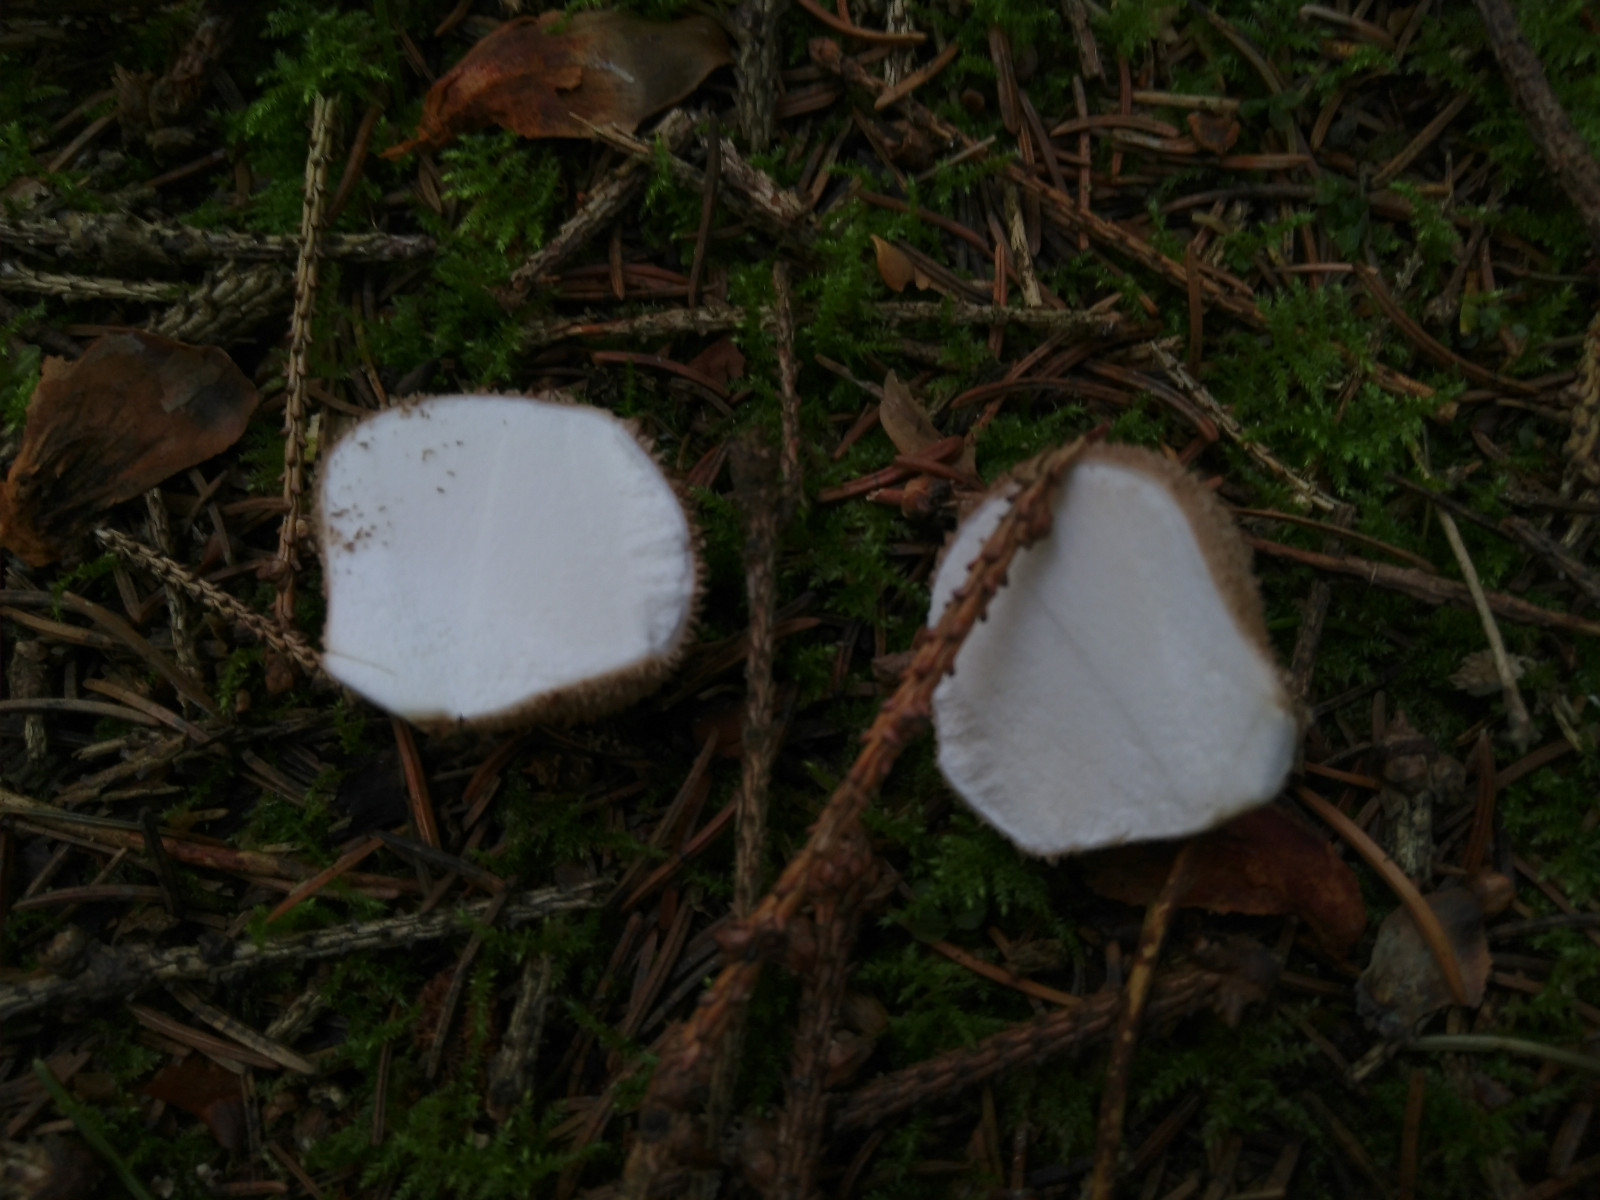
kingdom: Fungi
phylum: Basidiomycota
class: Agaricomycetes
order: Agaricales
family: Lycoperdaceae
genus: Lycoperdon
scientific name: Lycoperdon nigrescens
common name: sortagtig støvbold
